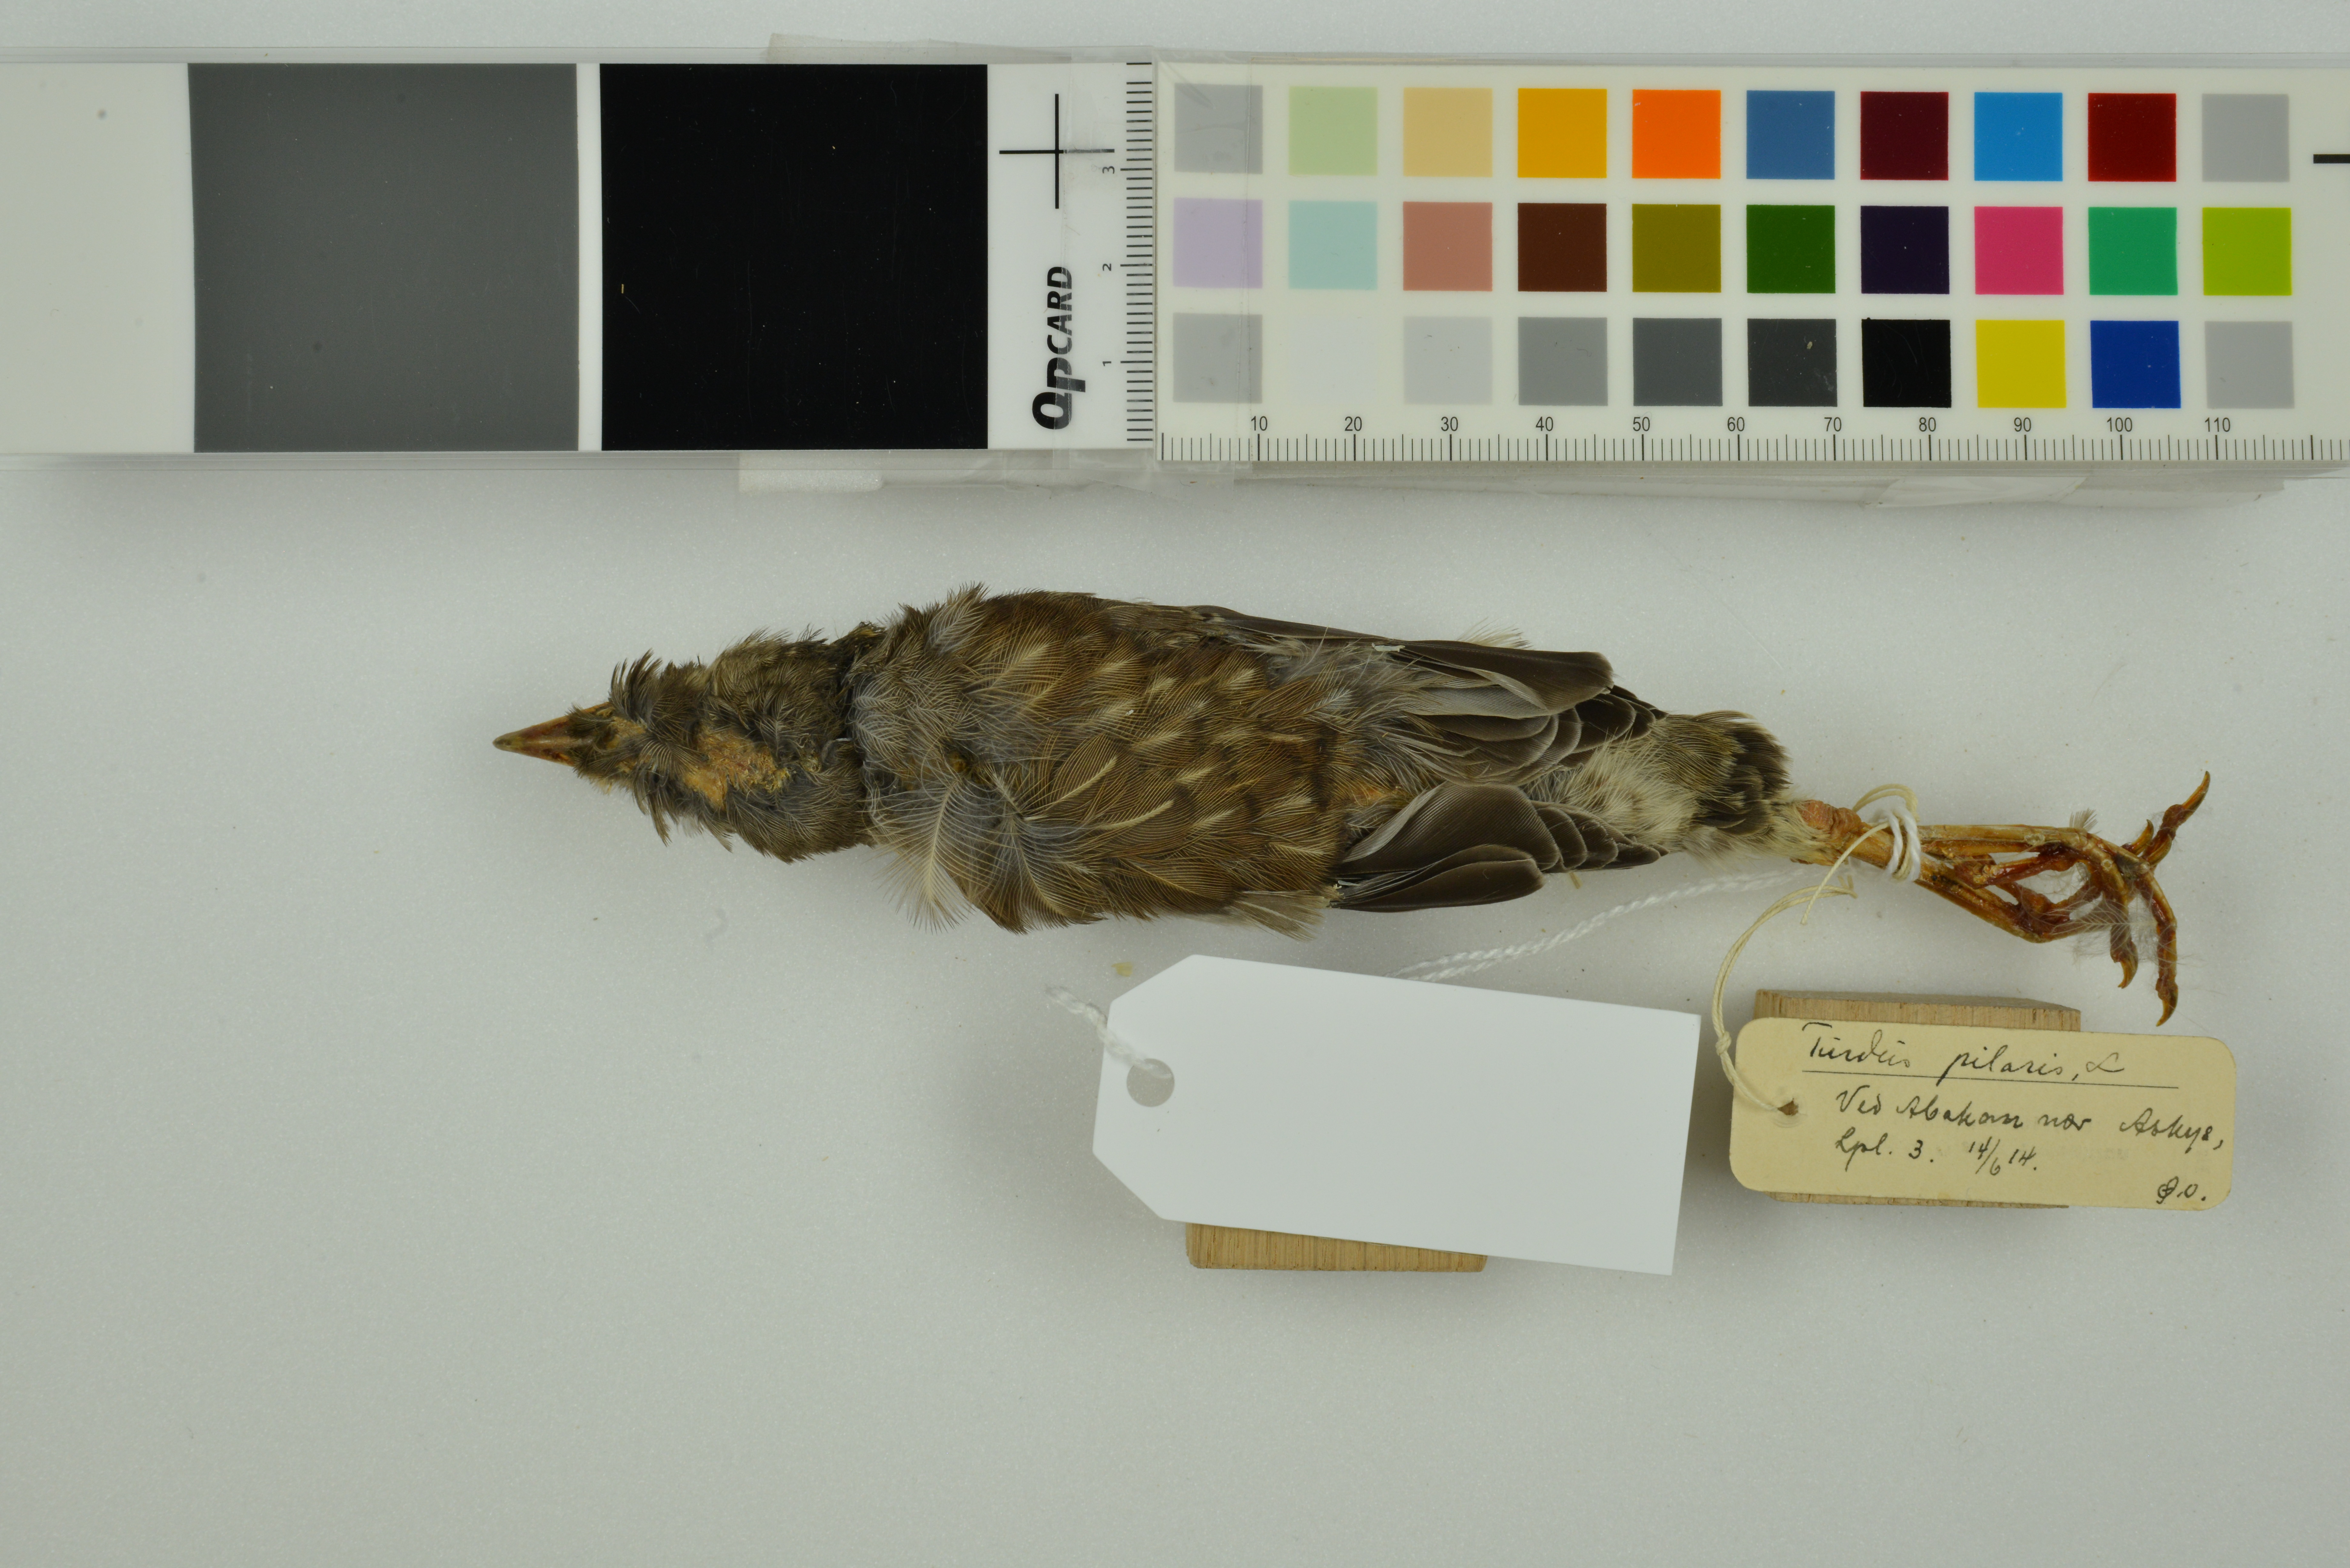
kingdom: Animalia
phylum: Chordata
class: Aves
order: Passeriformes
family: Turdidae
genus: Turdus
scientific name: Turdus pilaris
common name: Fieldfare
